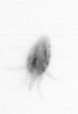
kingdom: Animalia
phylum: Annelida
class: Polychaeta
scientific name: Polychaeta
